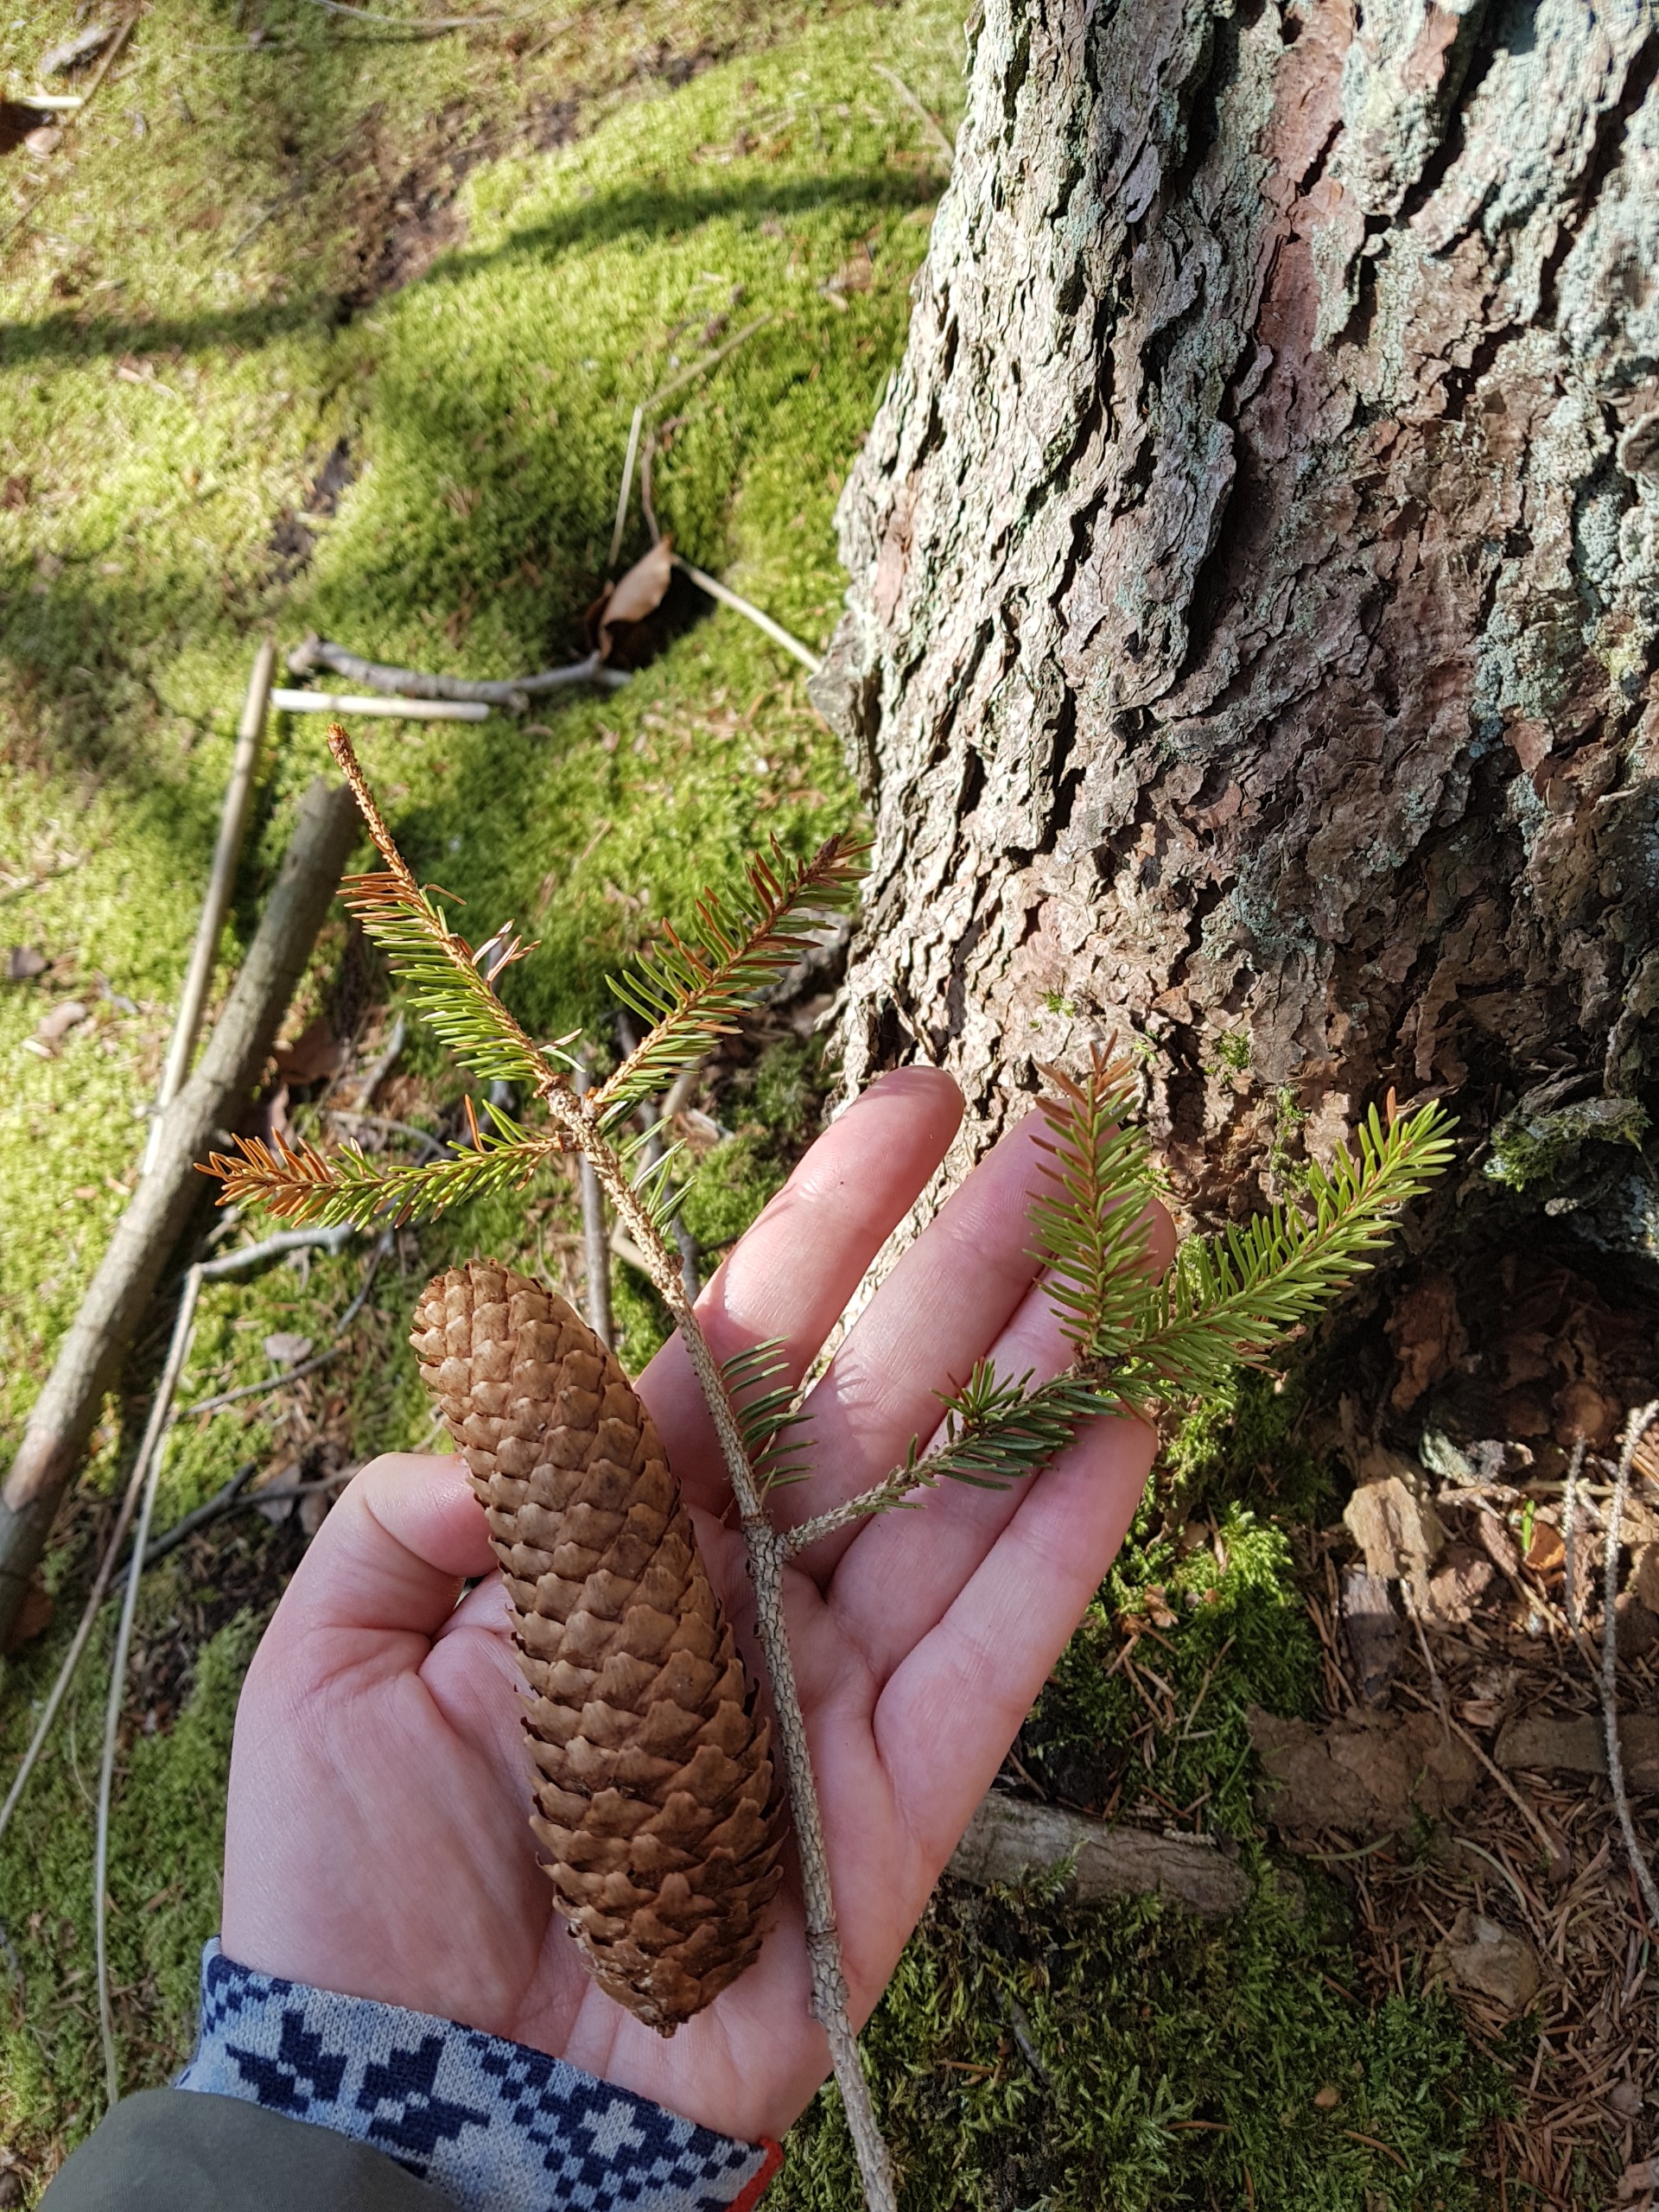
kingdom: Plantae
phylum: Tracheophyta
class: Pinopsida
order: Pinales
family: Pinaceae
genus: Picea
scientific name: Picea abies
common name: Rød-gran
